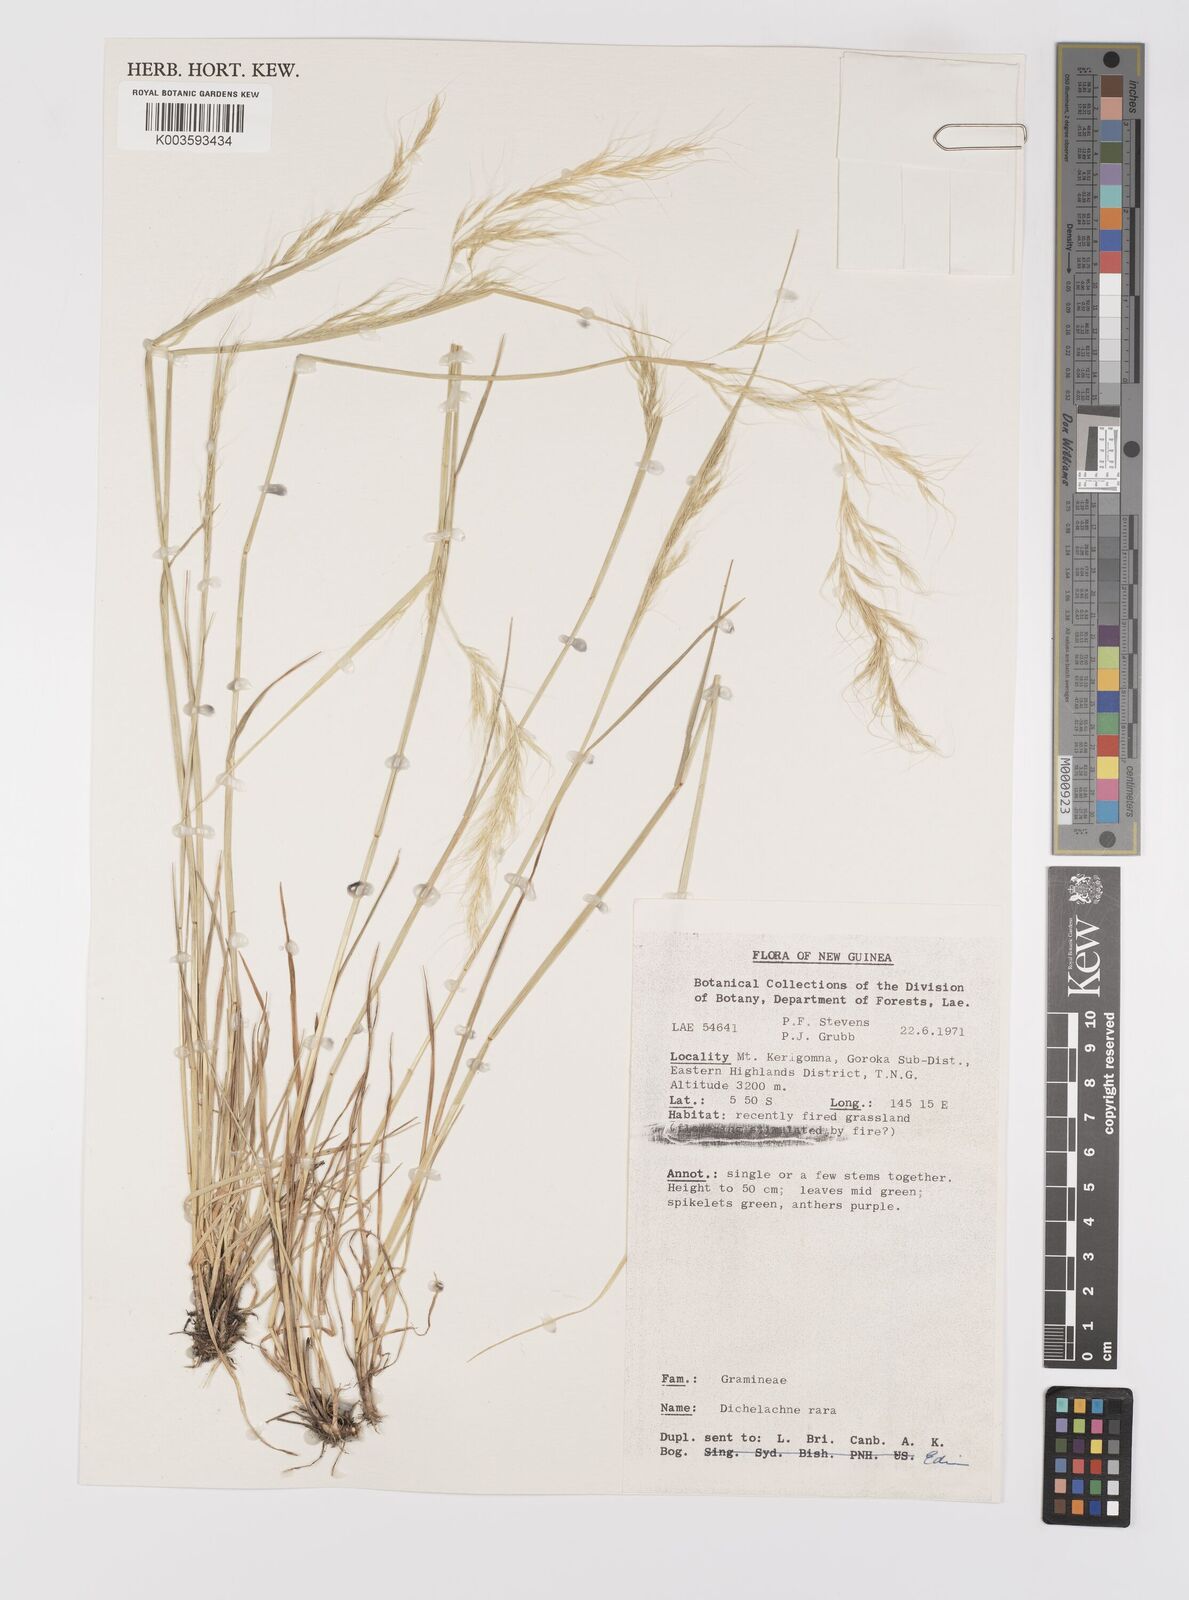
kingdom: Plantae
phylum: Tracheophyta
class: Liliopsida
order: Poales
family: Poaceae
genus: Dichelachne
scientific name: Dichelachne rara
